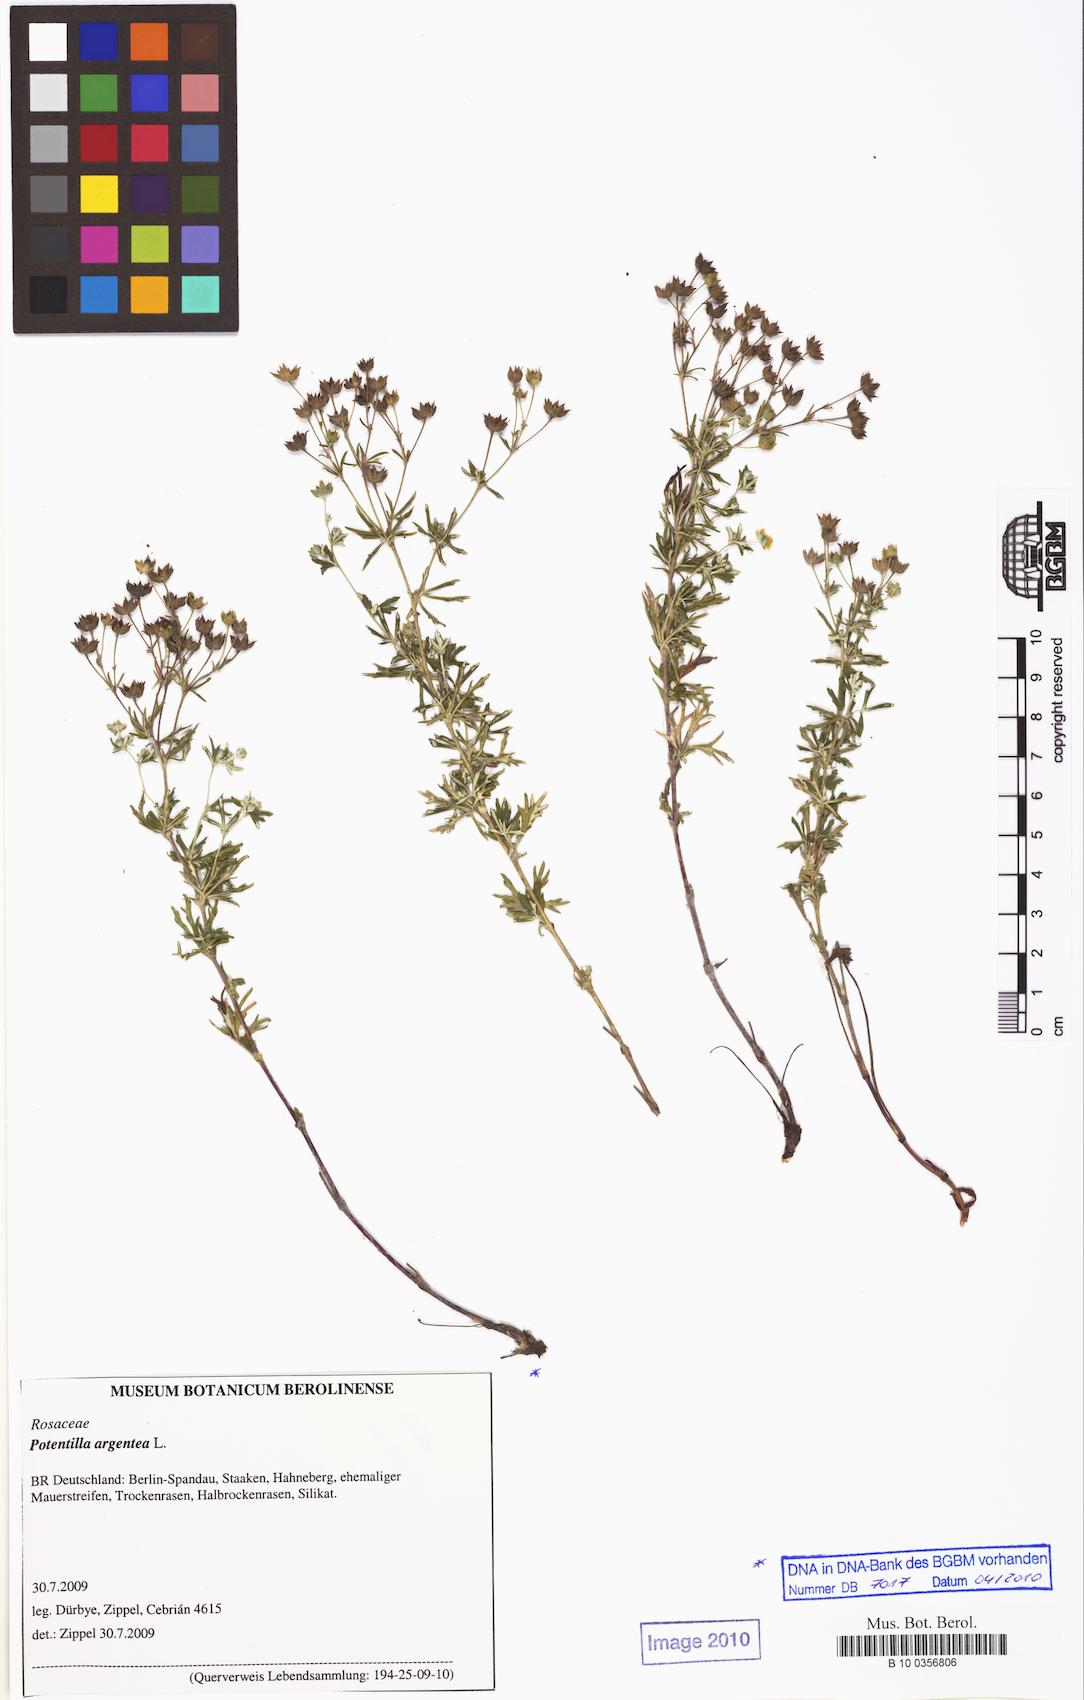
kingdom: Plantae
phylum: Tracheophyta
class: Magnoliopsida
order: Rosales
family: Rosaceae
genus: Potentilla
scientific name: Potentilla argentea
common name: Hoary cinquefoil
